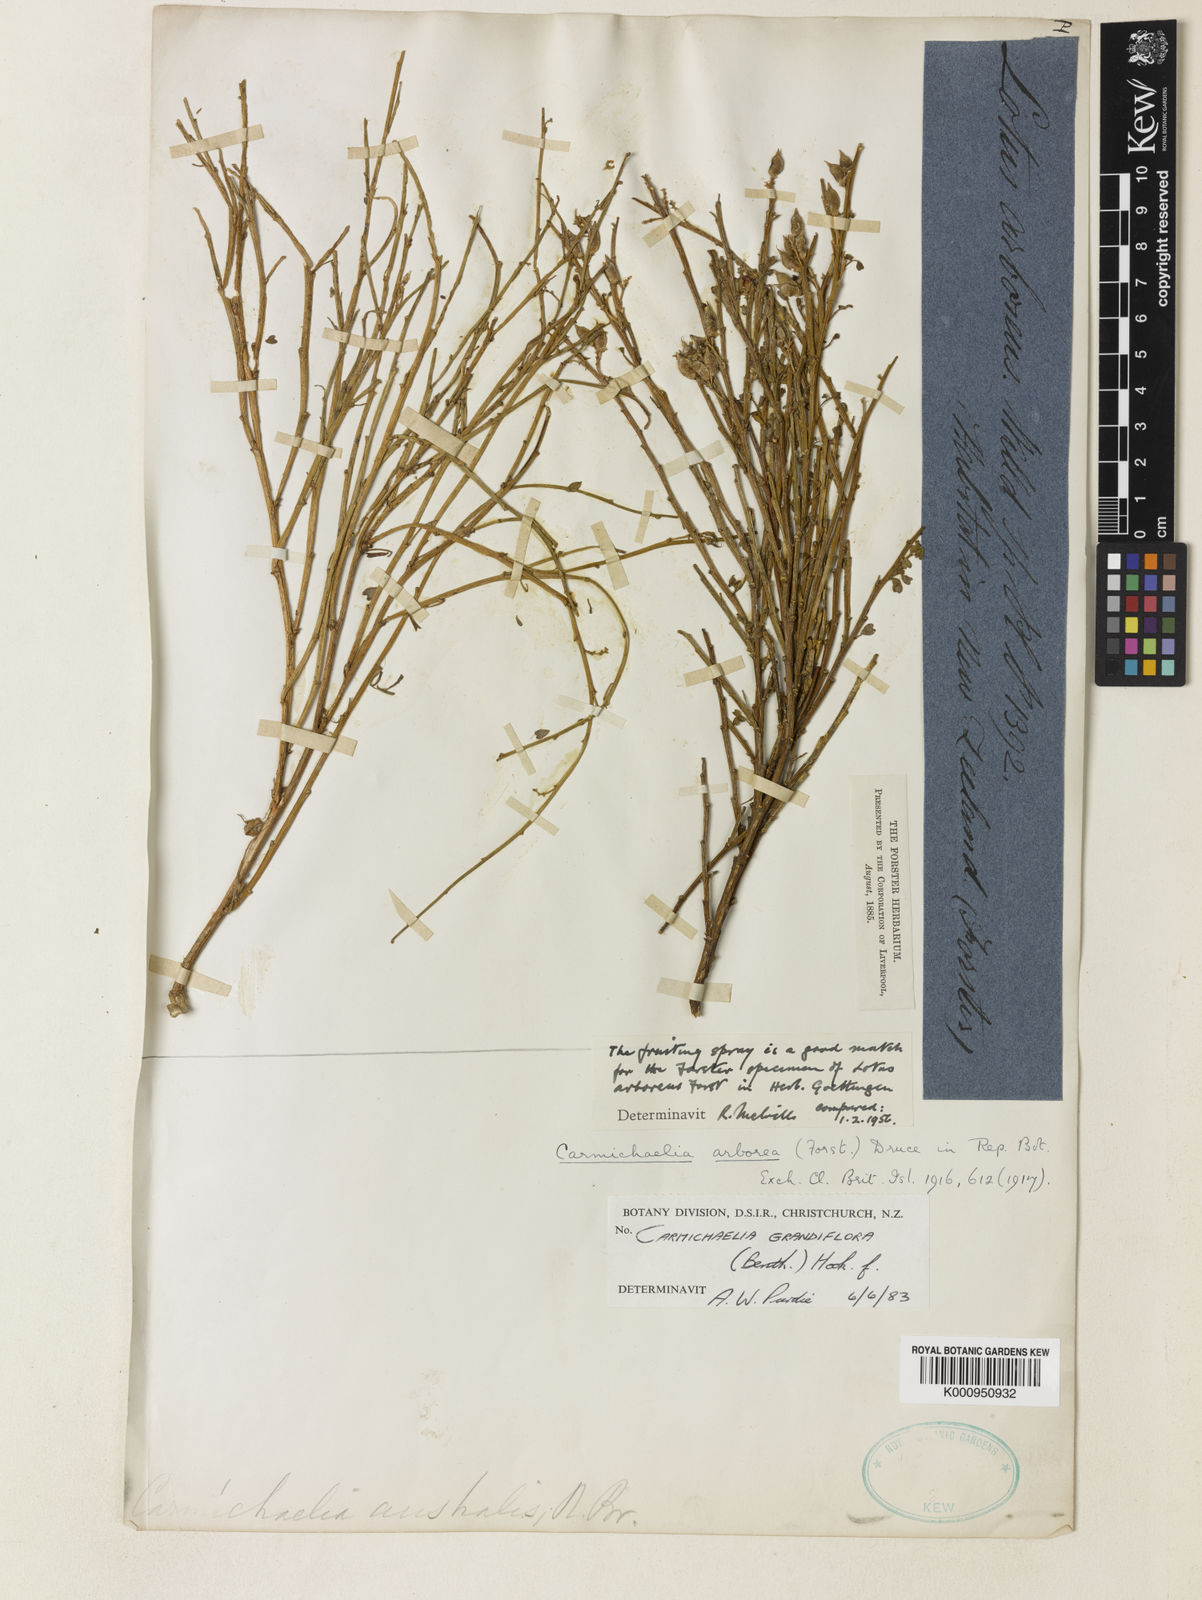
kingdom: Plantae
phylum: Tracheophyta
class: Magnoliopsida
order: Fabales
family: Fabaceae
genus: Carmichaelia
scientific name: Carmichaelia arborea
